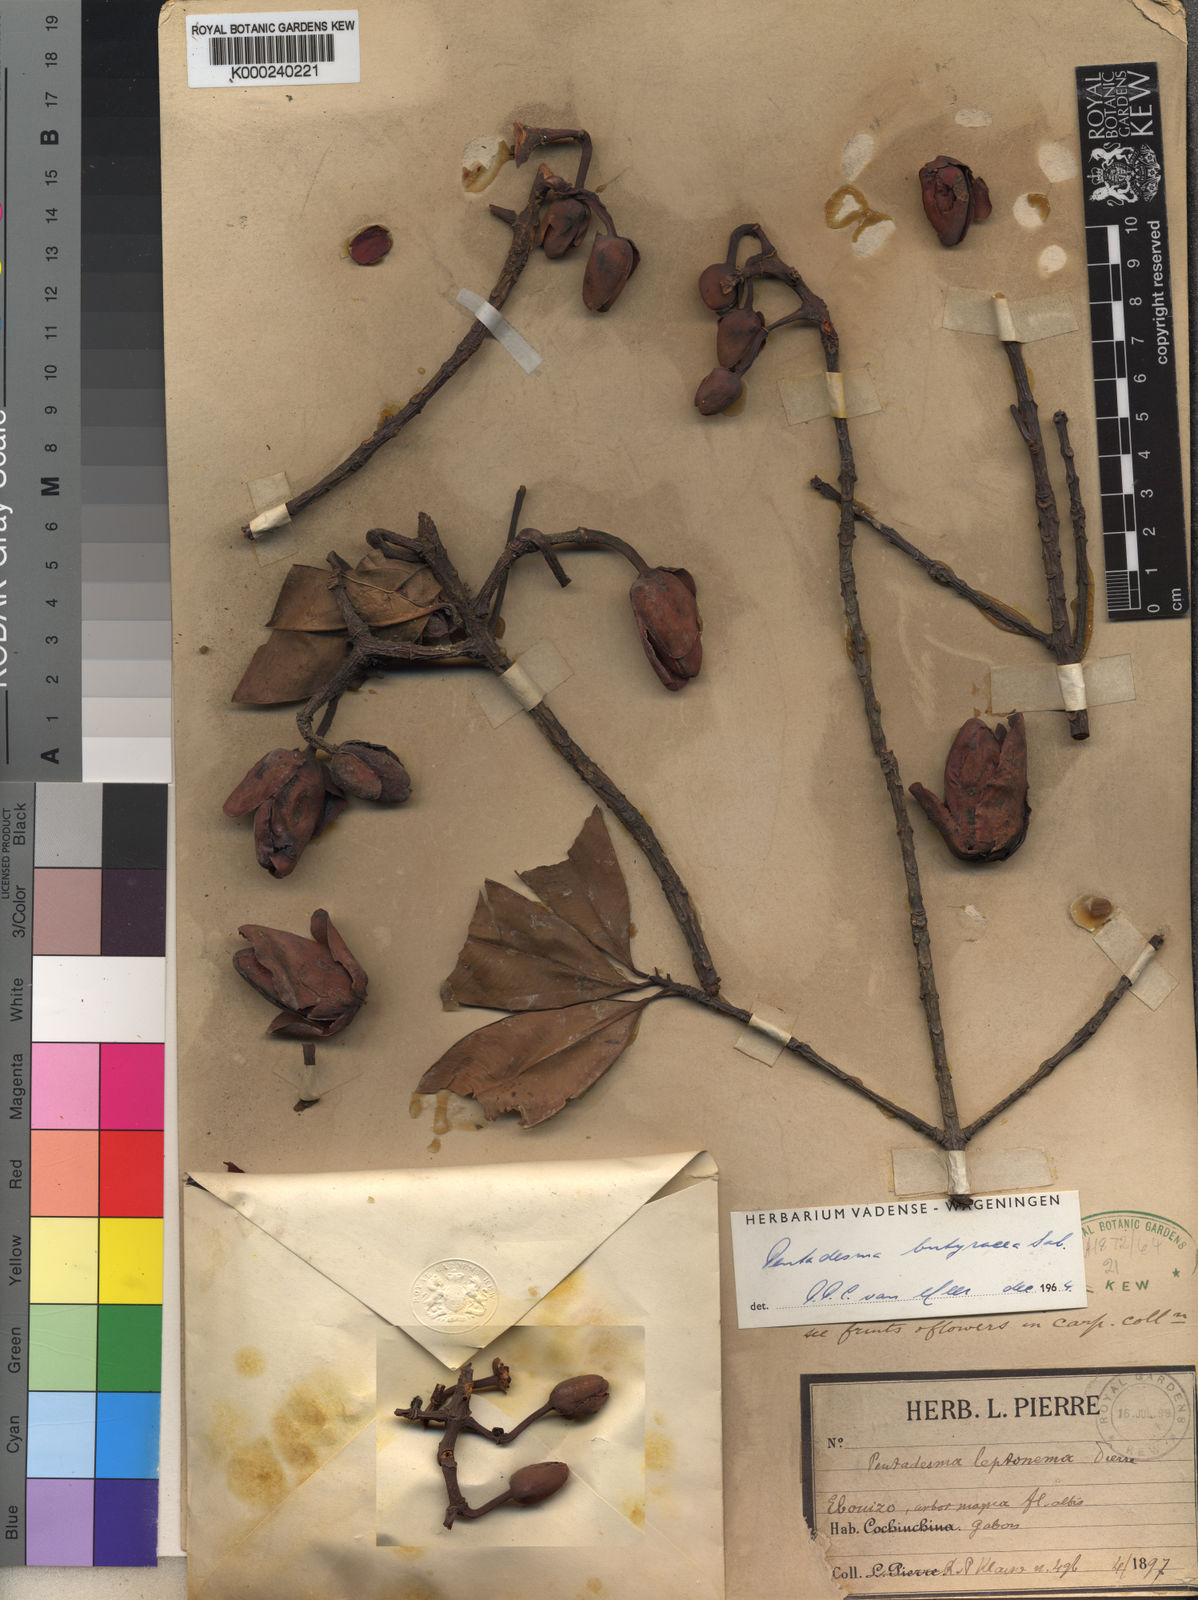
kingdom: Plantae
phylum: Tracheophyta
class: Magnoliopsida
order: Malpighiales
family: Clusiaceae
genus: Pentadesma
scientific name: Pentadesma butyracea
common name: Buttertree
